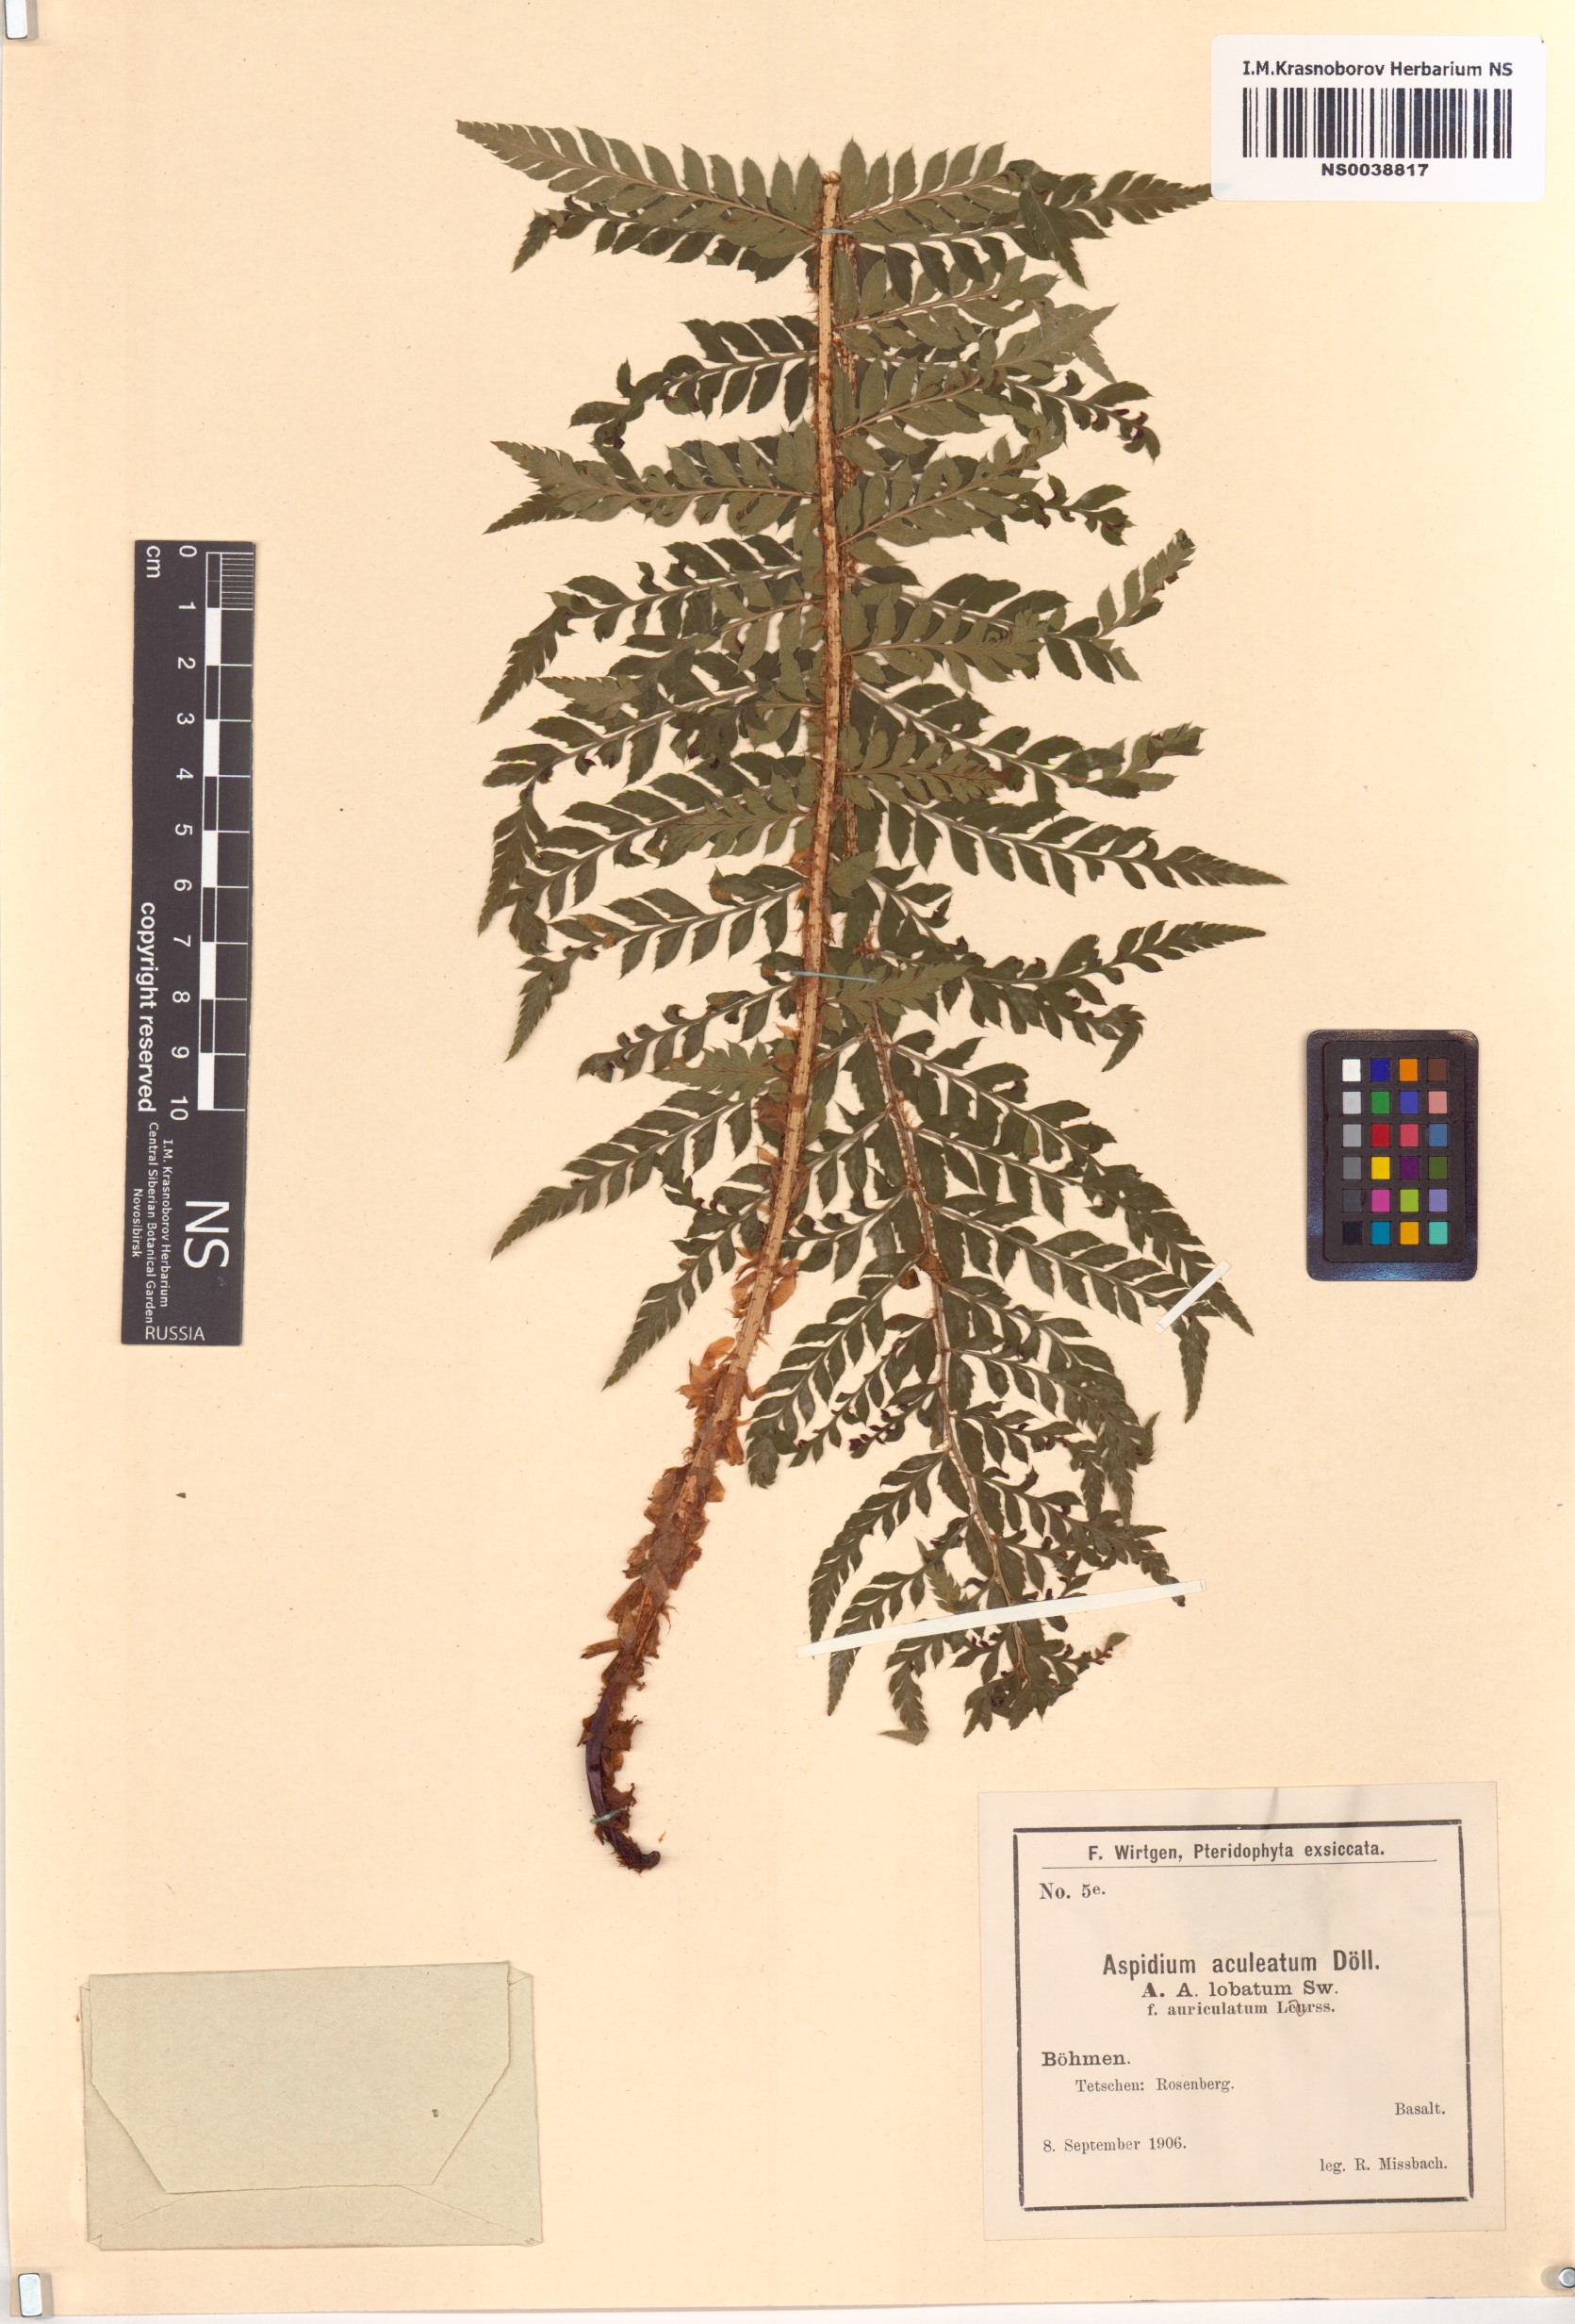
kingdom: Plantae
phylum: Tracheophyta
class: Polypodiopsida
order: Polypodiales
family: Dryopteridaceae
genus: Polystichum
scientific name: Polystichum aculeatum
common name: Hard shield-fern
